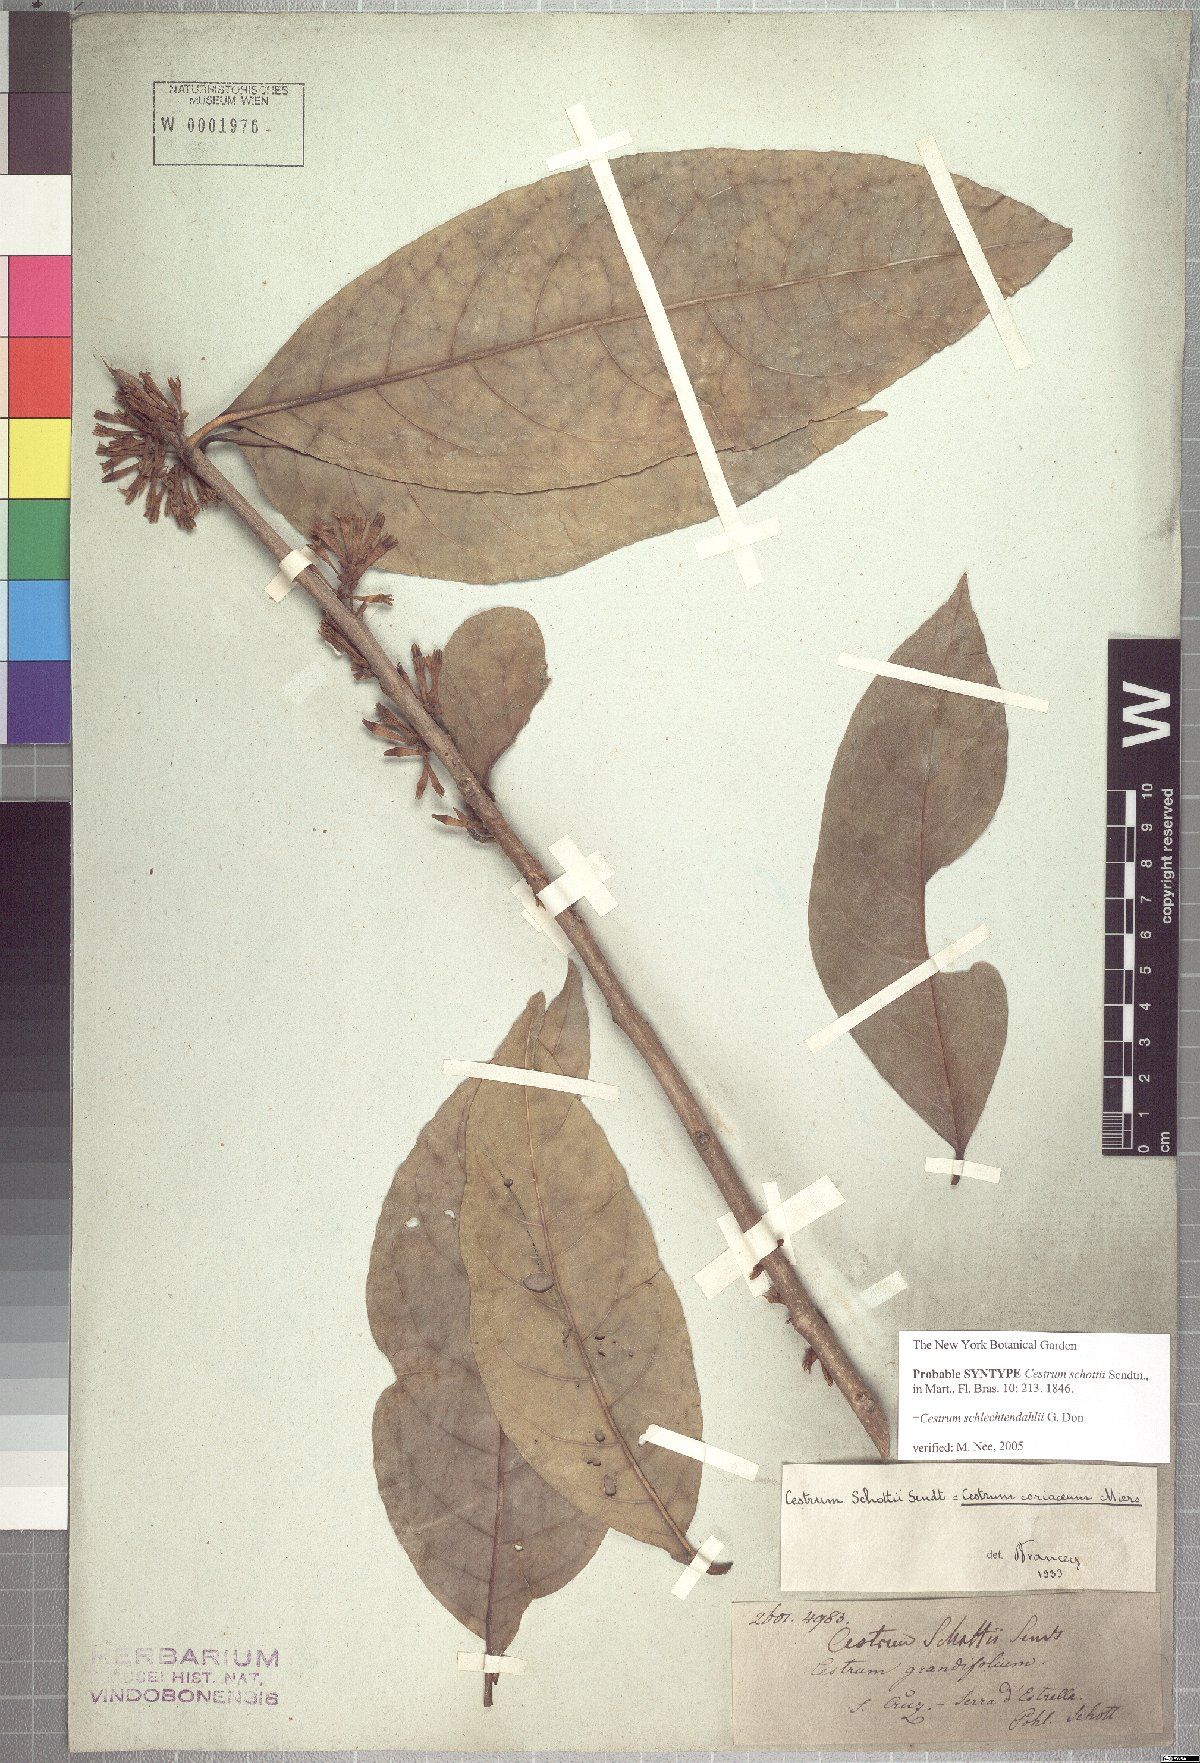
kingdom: Plantae
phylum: Tracheophyta
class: Magnoliopsida
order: Solanales
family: Solanaceae
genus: Cestrum
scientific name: Cestrum coriaceum
